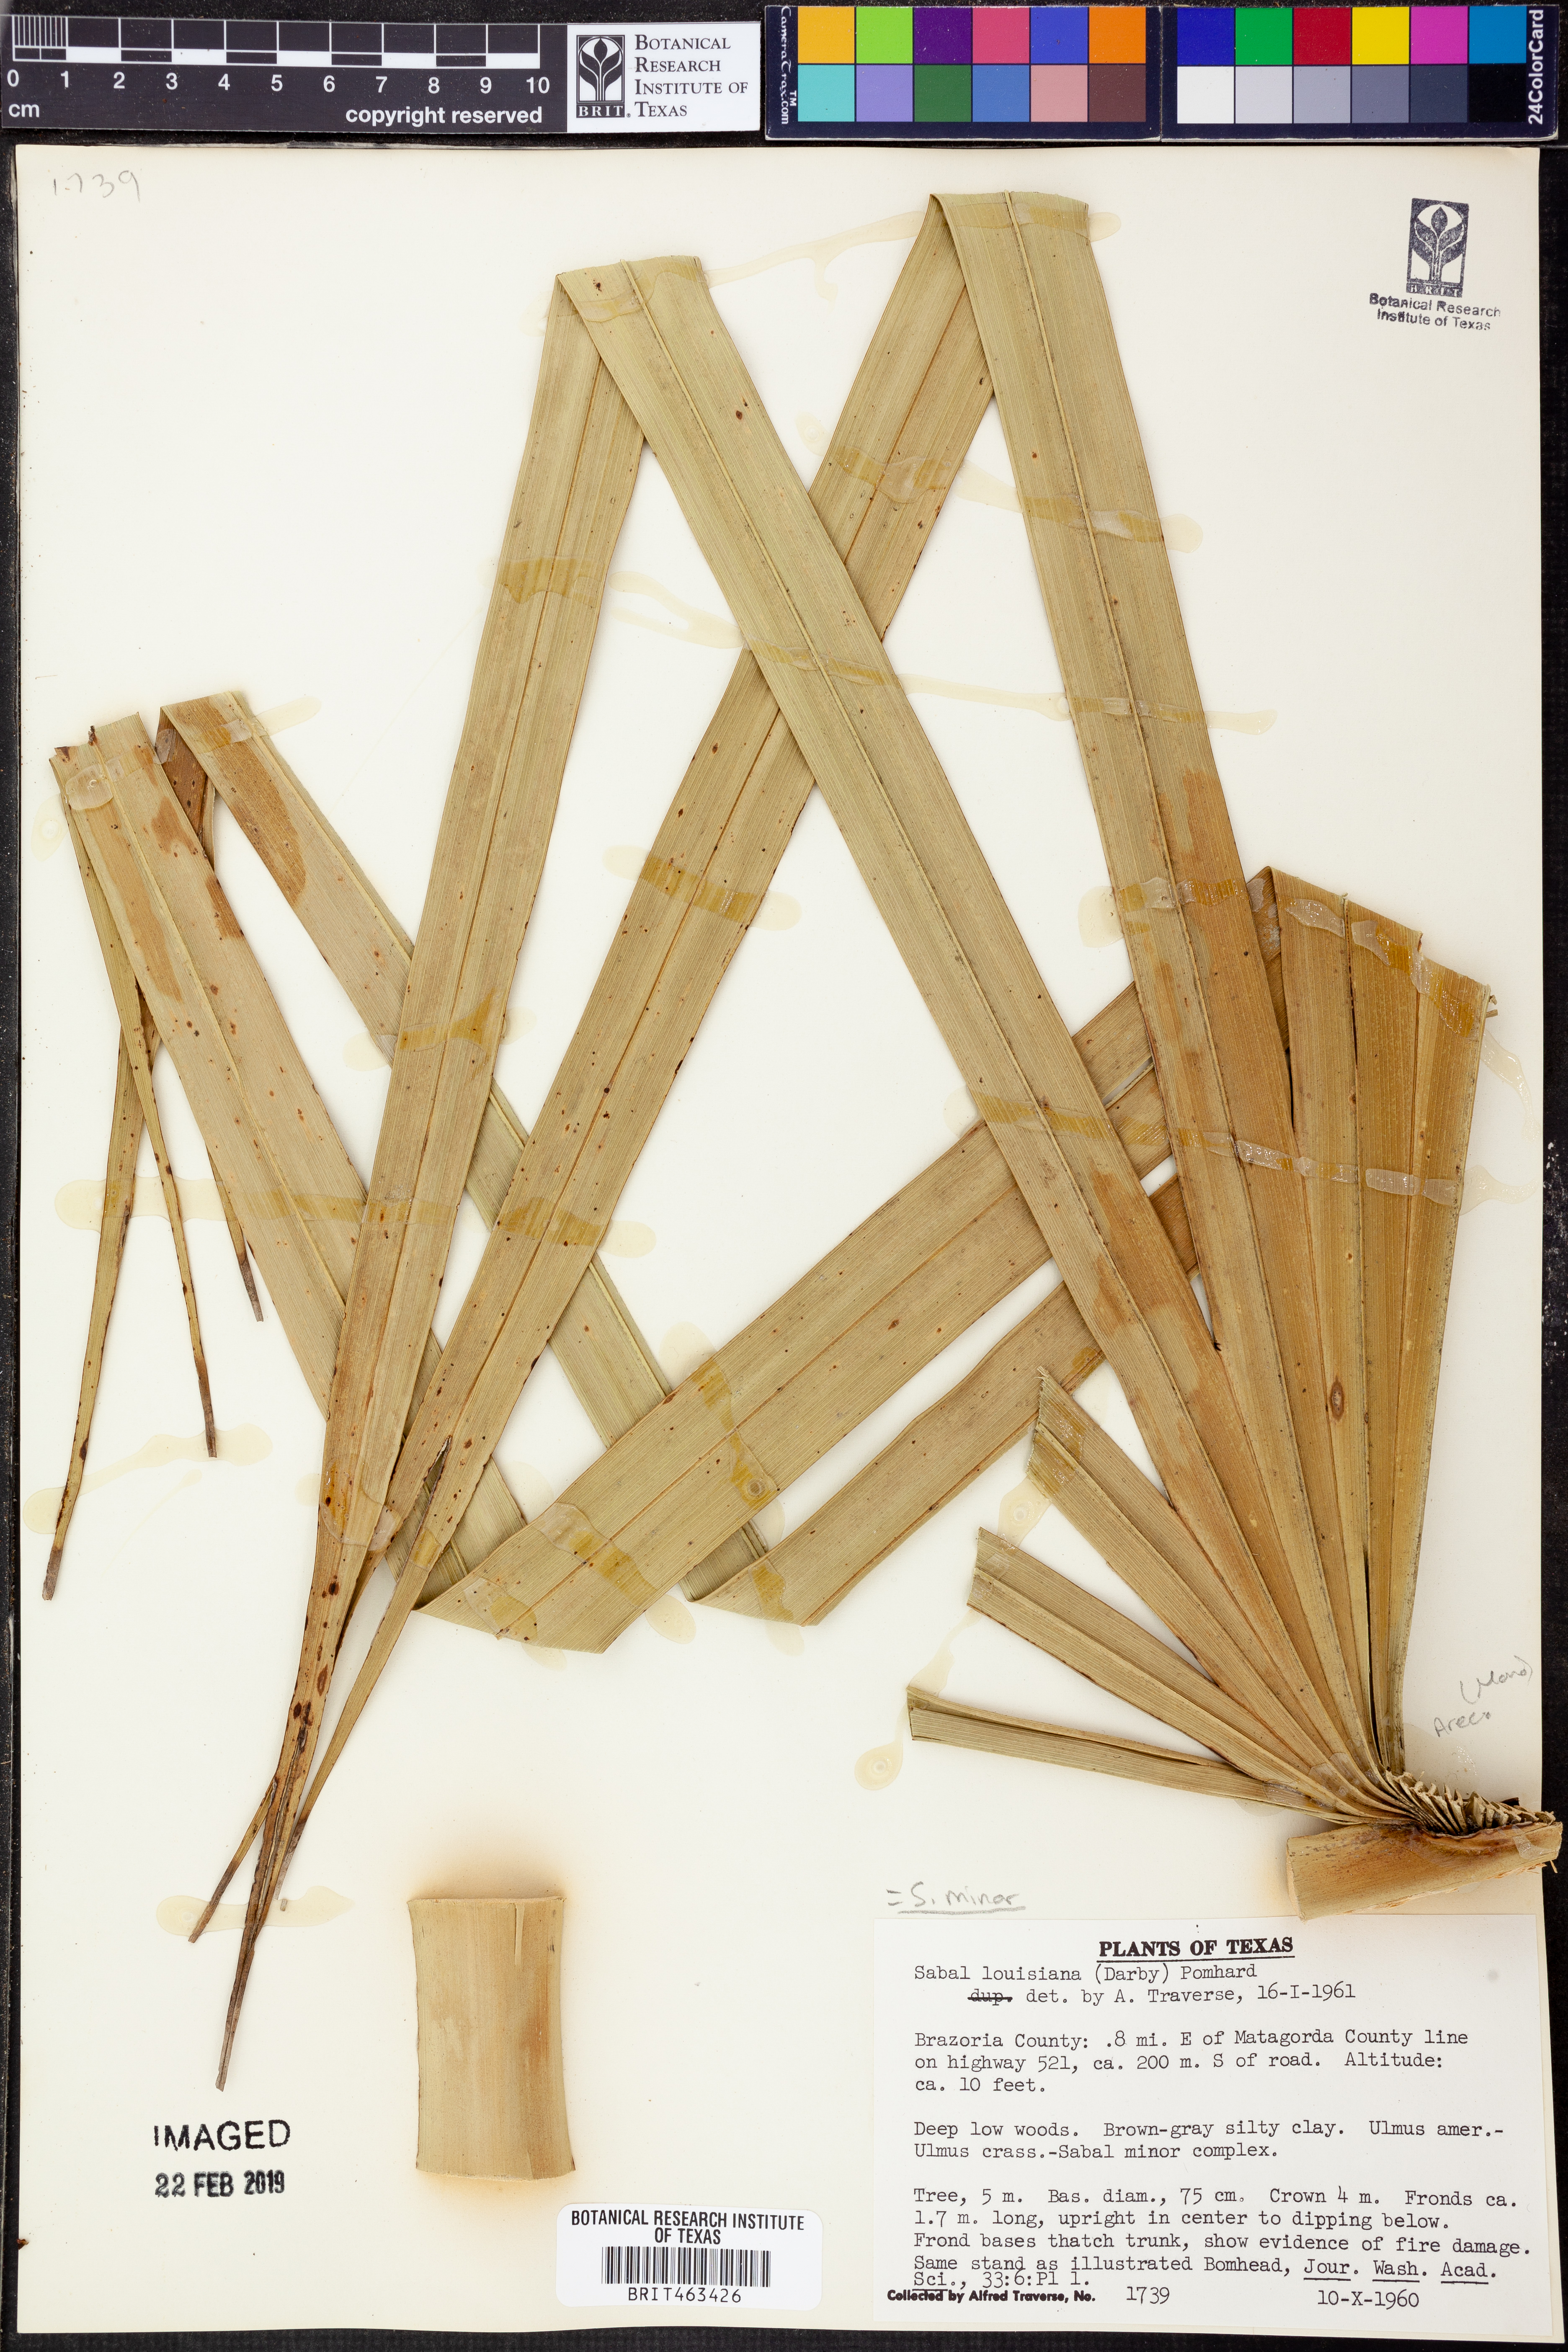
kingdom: Plantae
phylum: Tracheophyta
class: Liliopsida
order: Arecales
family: Arecaceae
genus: Sabal
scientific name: Sabal brazoriensis
